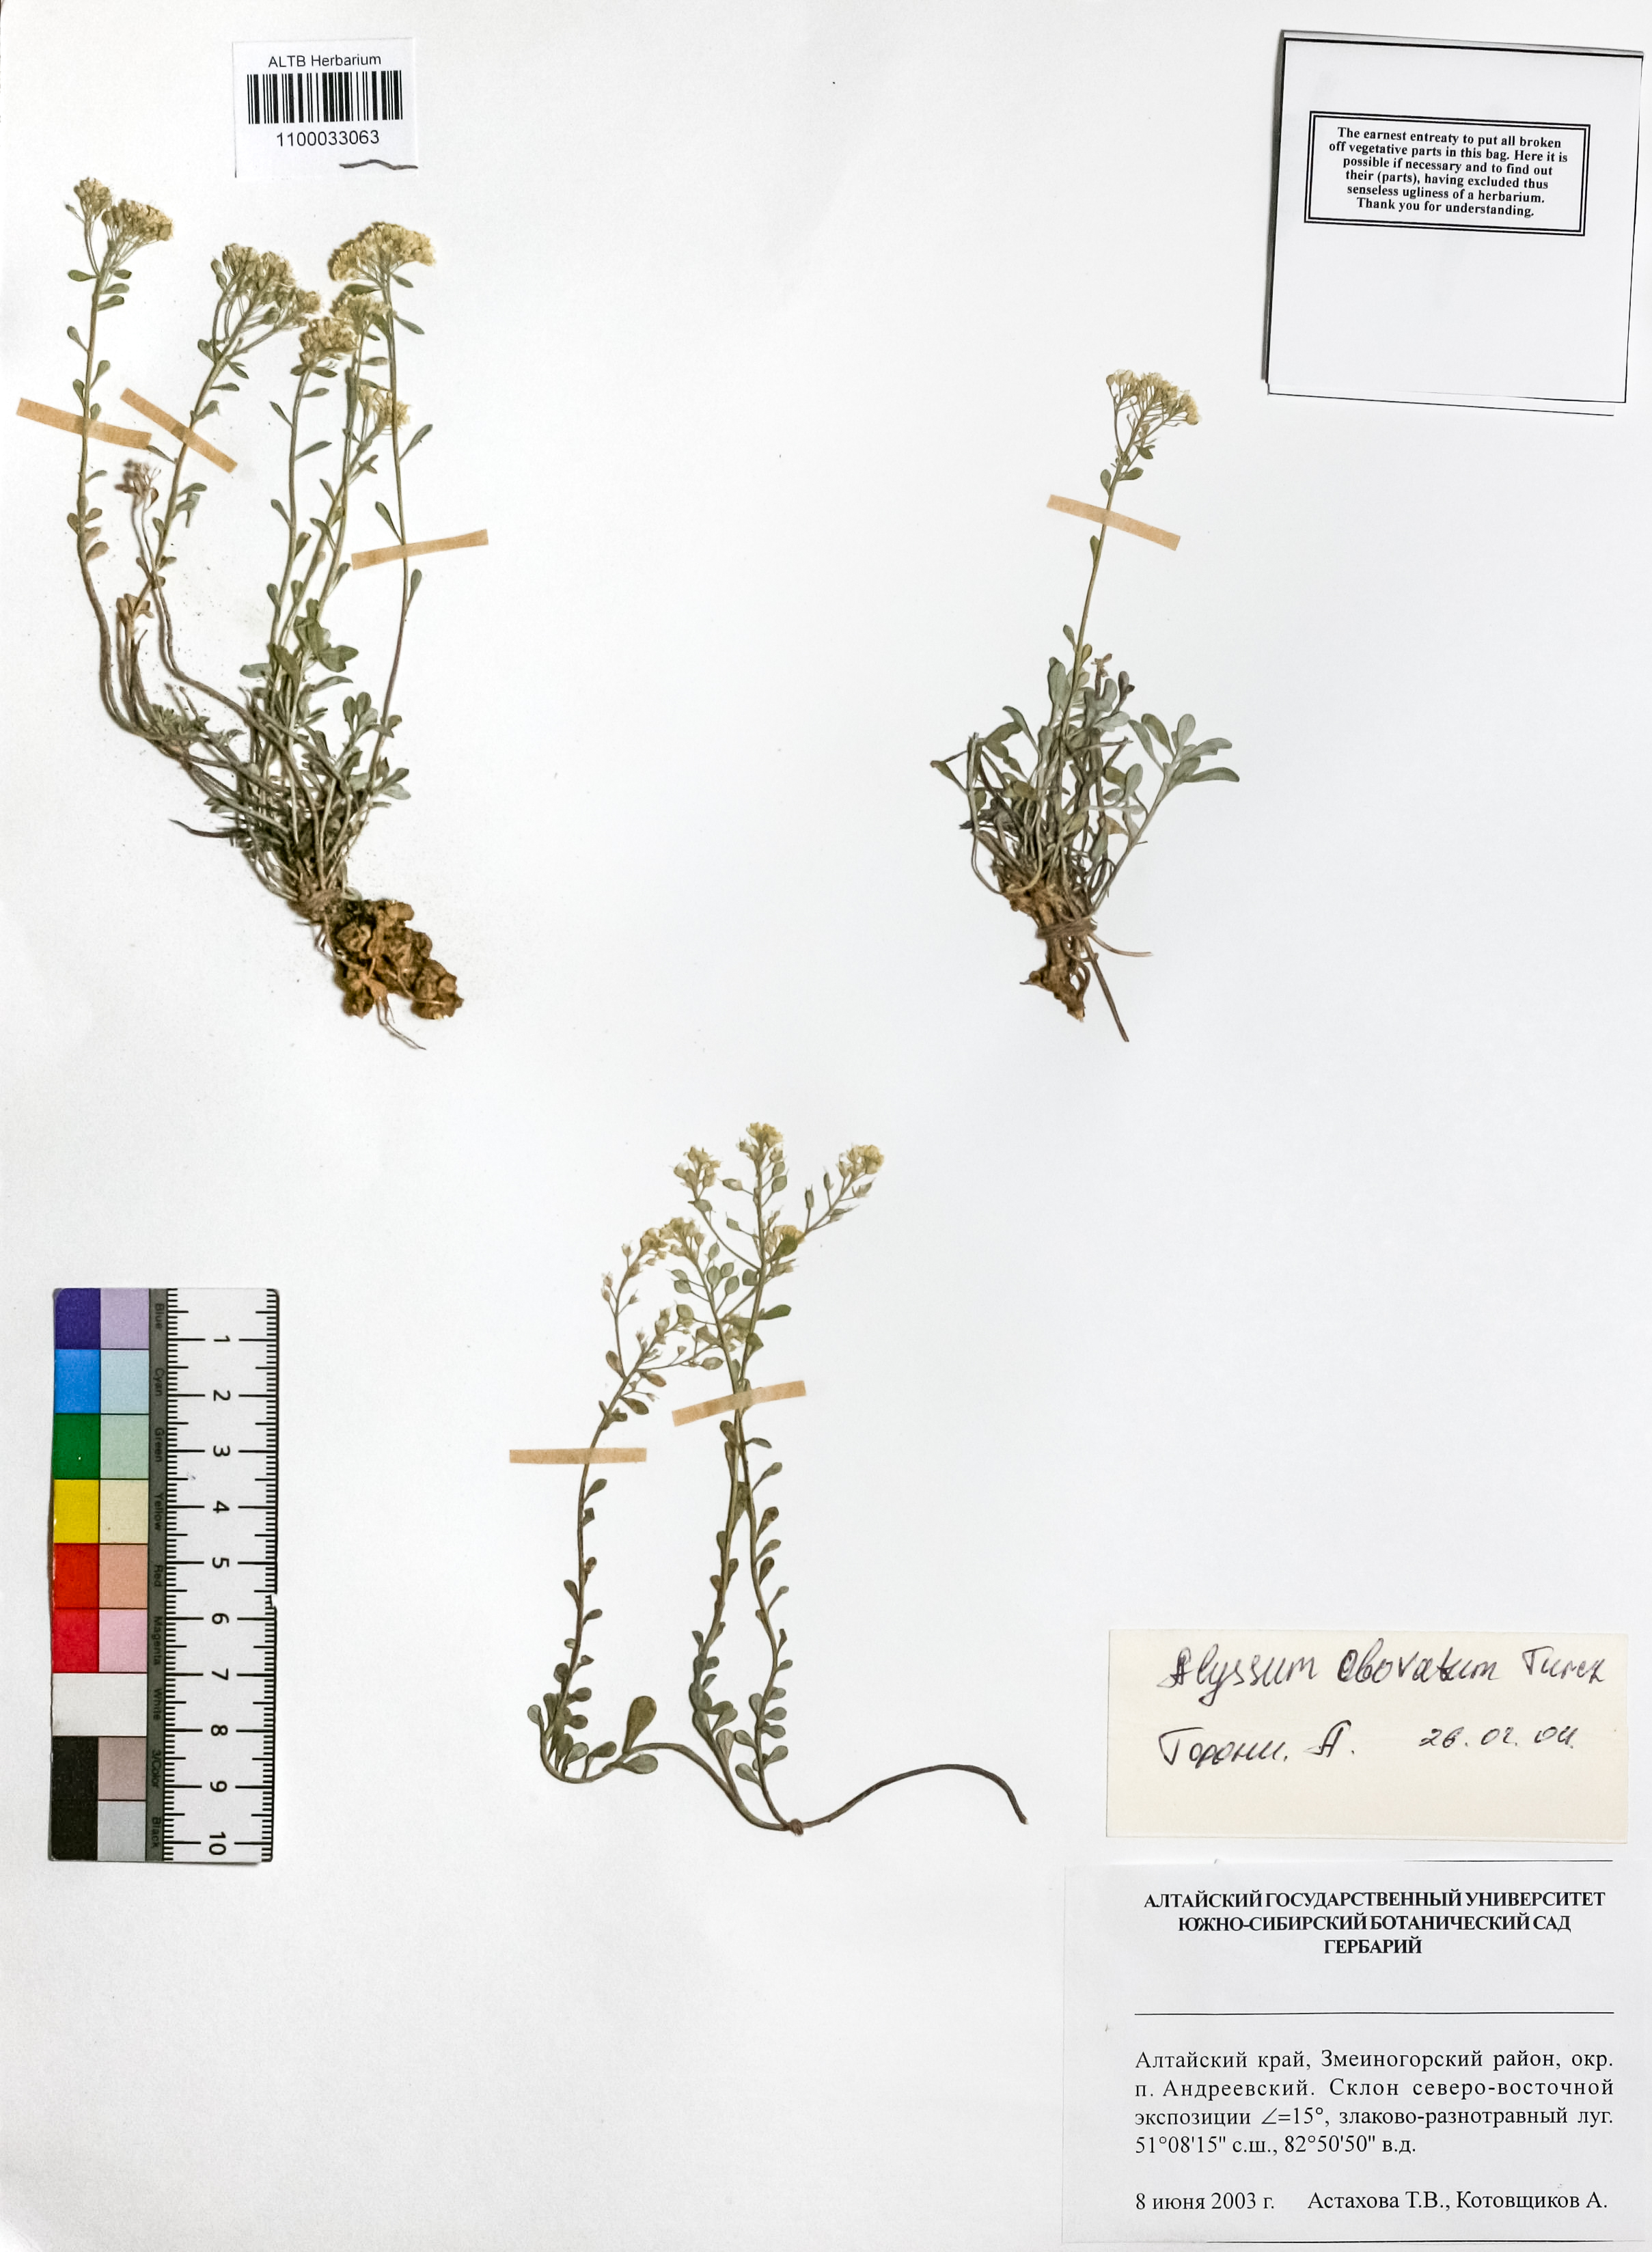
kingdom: Plantae
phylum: Tracheophyta
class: Magnoliopsida
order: Brassicales
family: Brassicaceae
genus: Odontarrhena
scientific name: Odontarrhena obovata
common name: American alyssum
